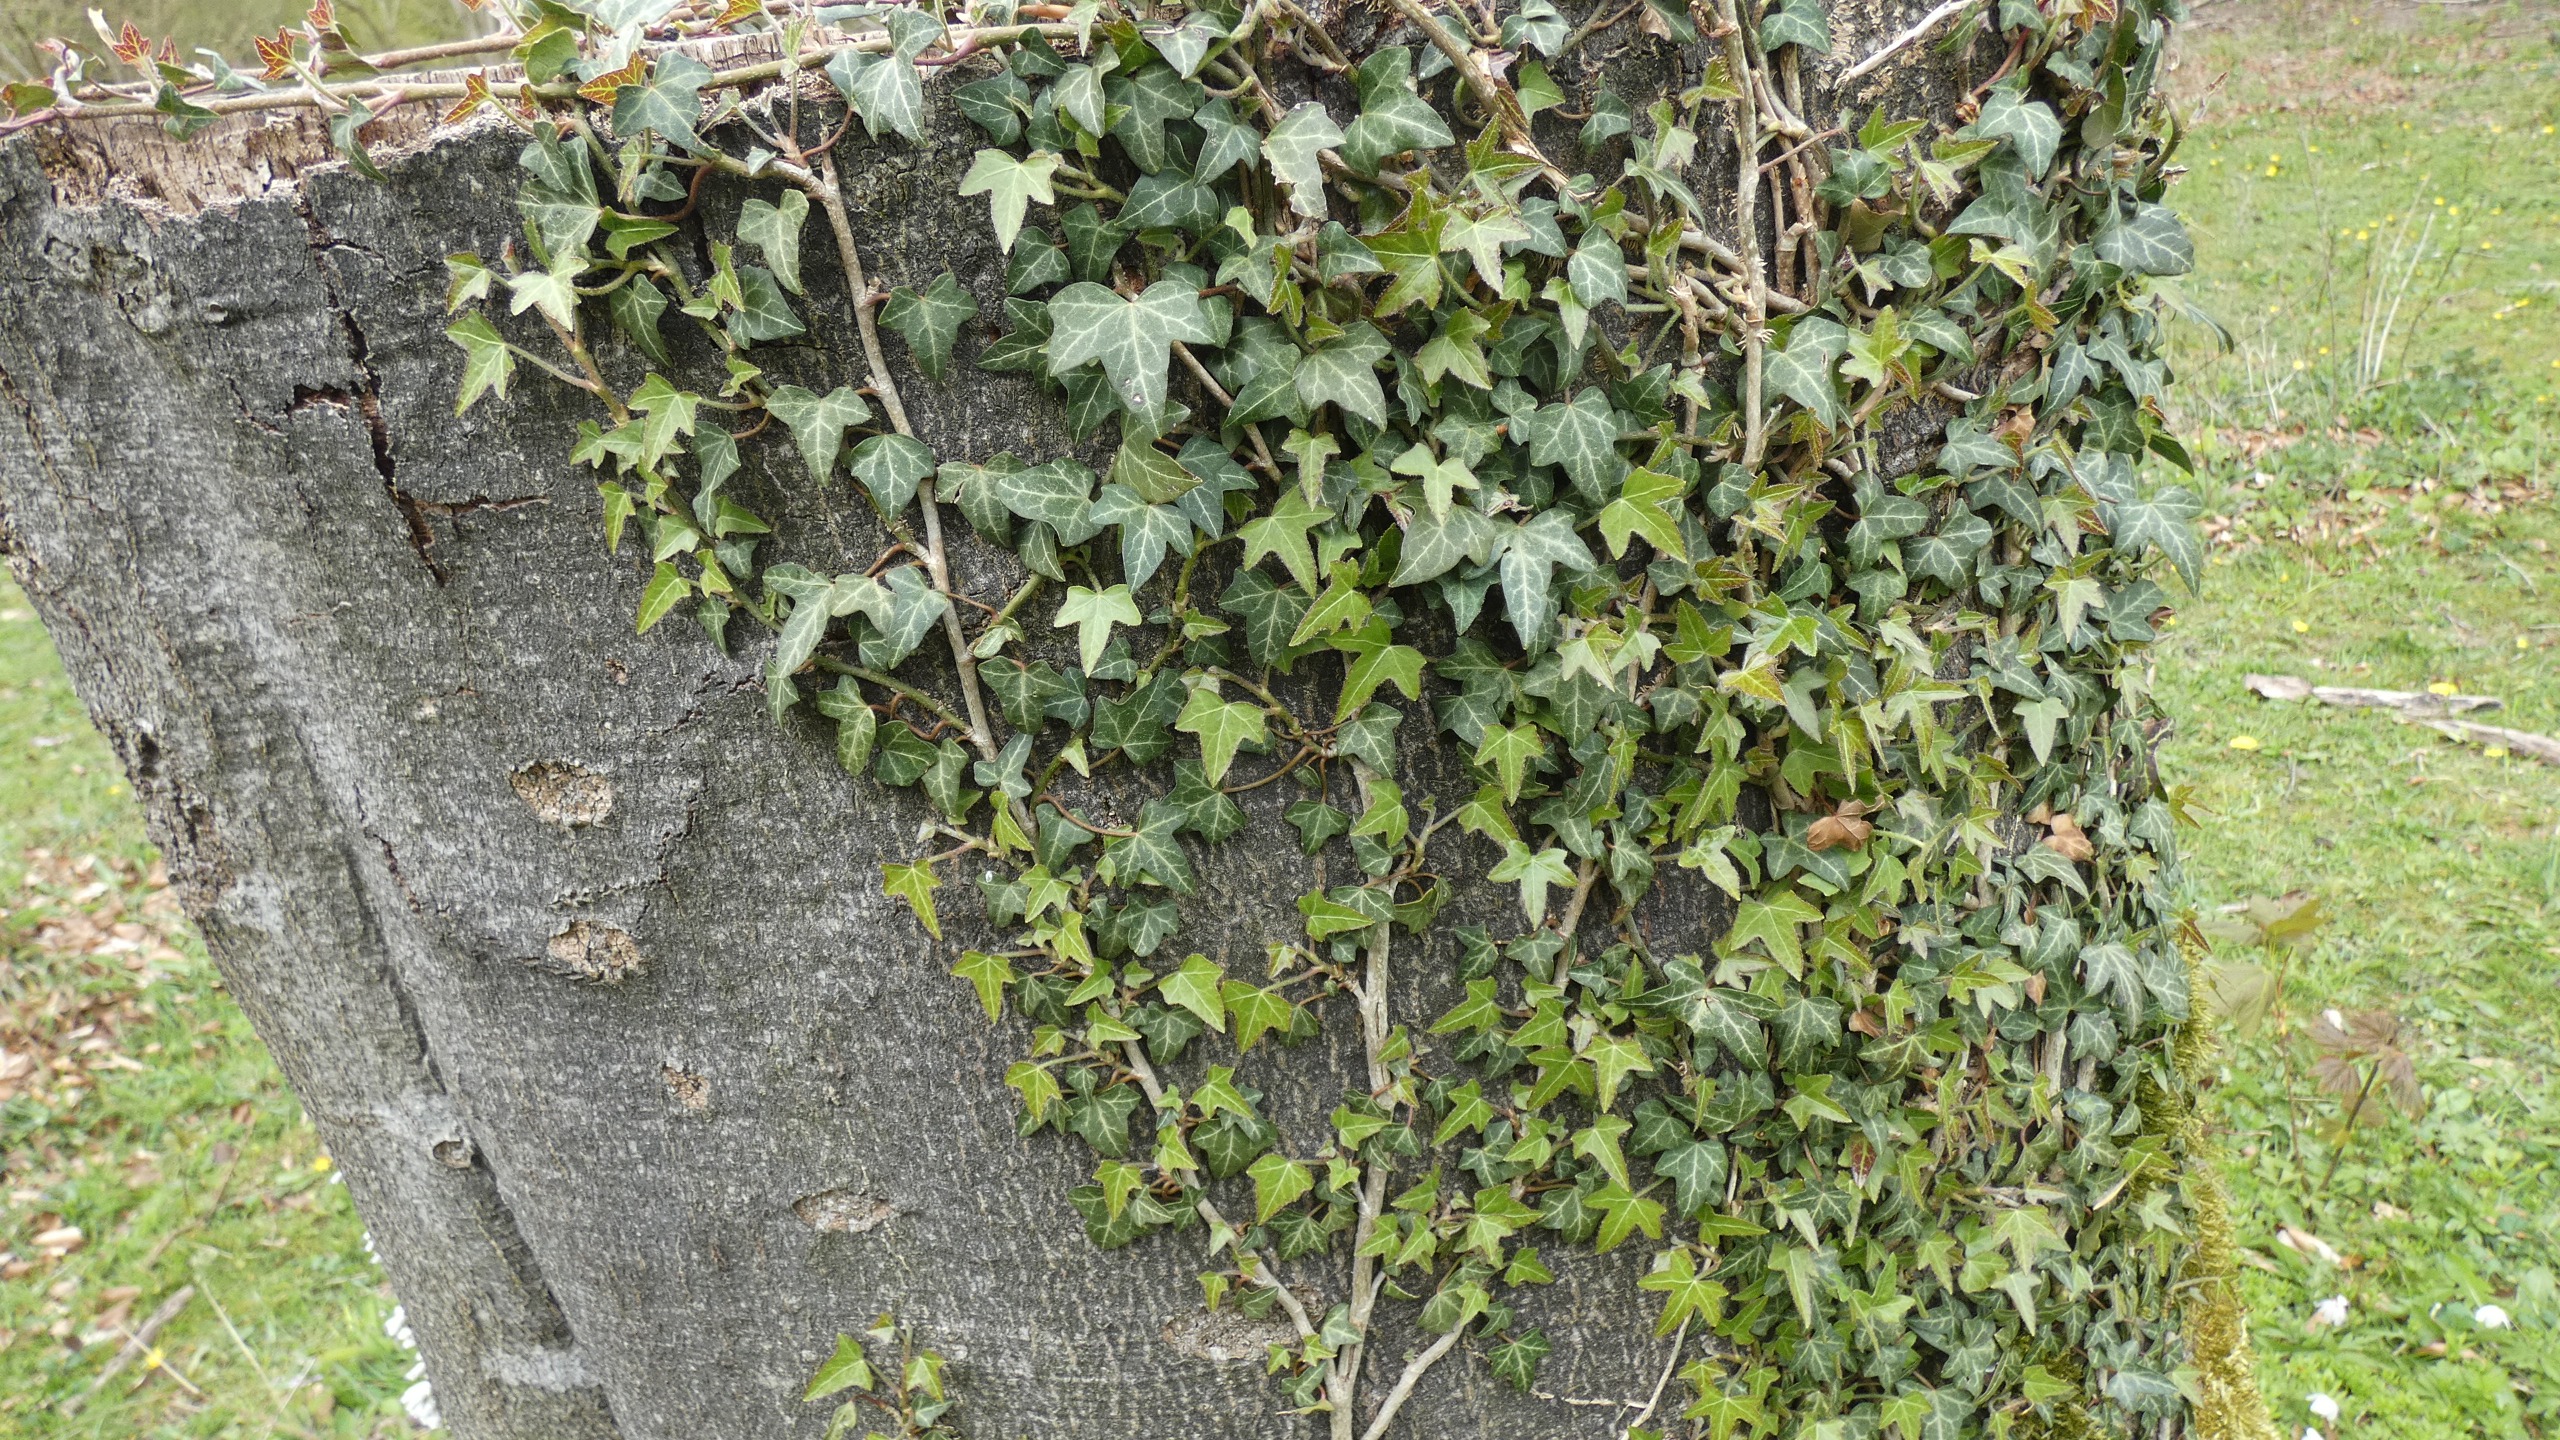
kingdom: Plantae
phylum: Tracheophyta
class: Magnoliopsida
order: Apiales
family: Araliaceae
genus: Hedera
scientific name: Hedera helix
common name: Vedbend
